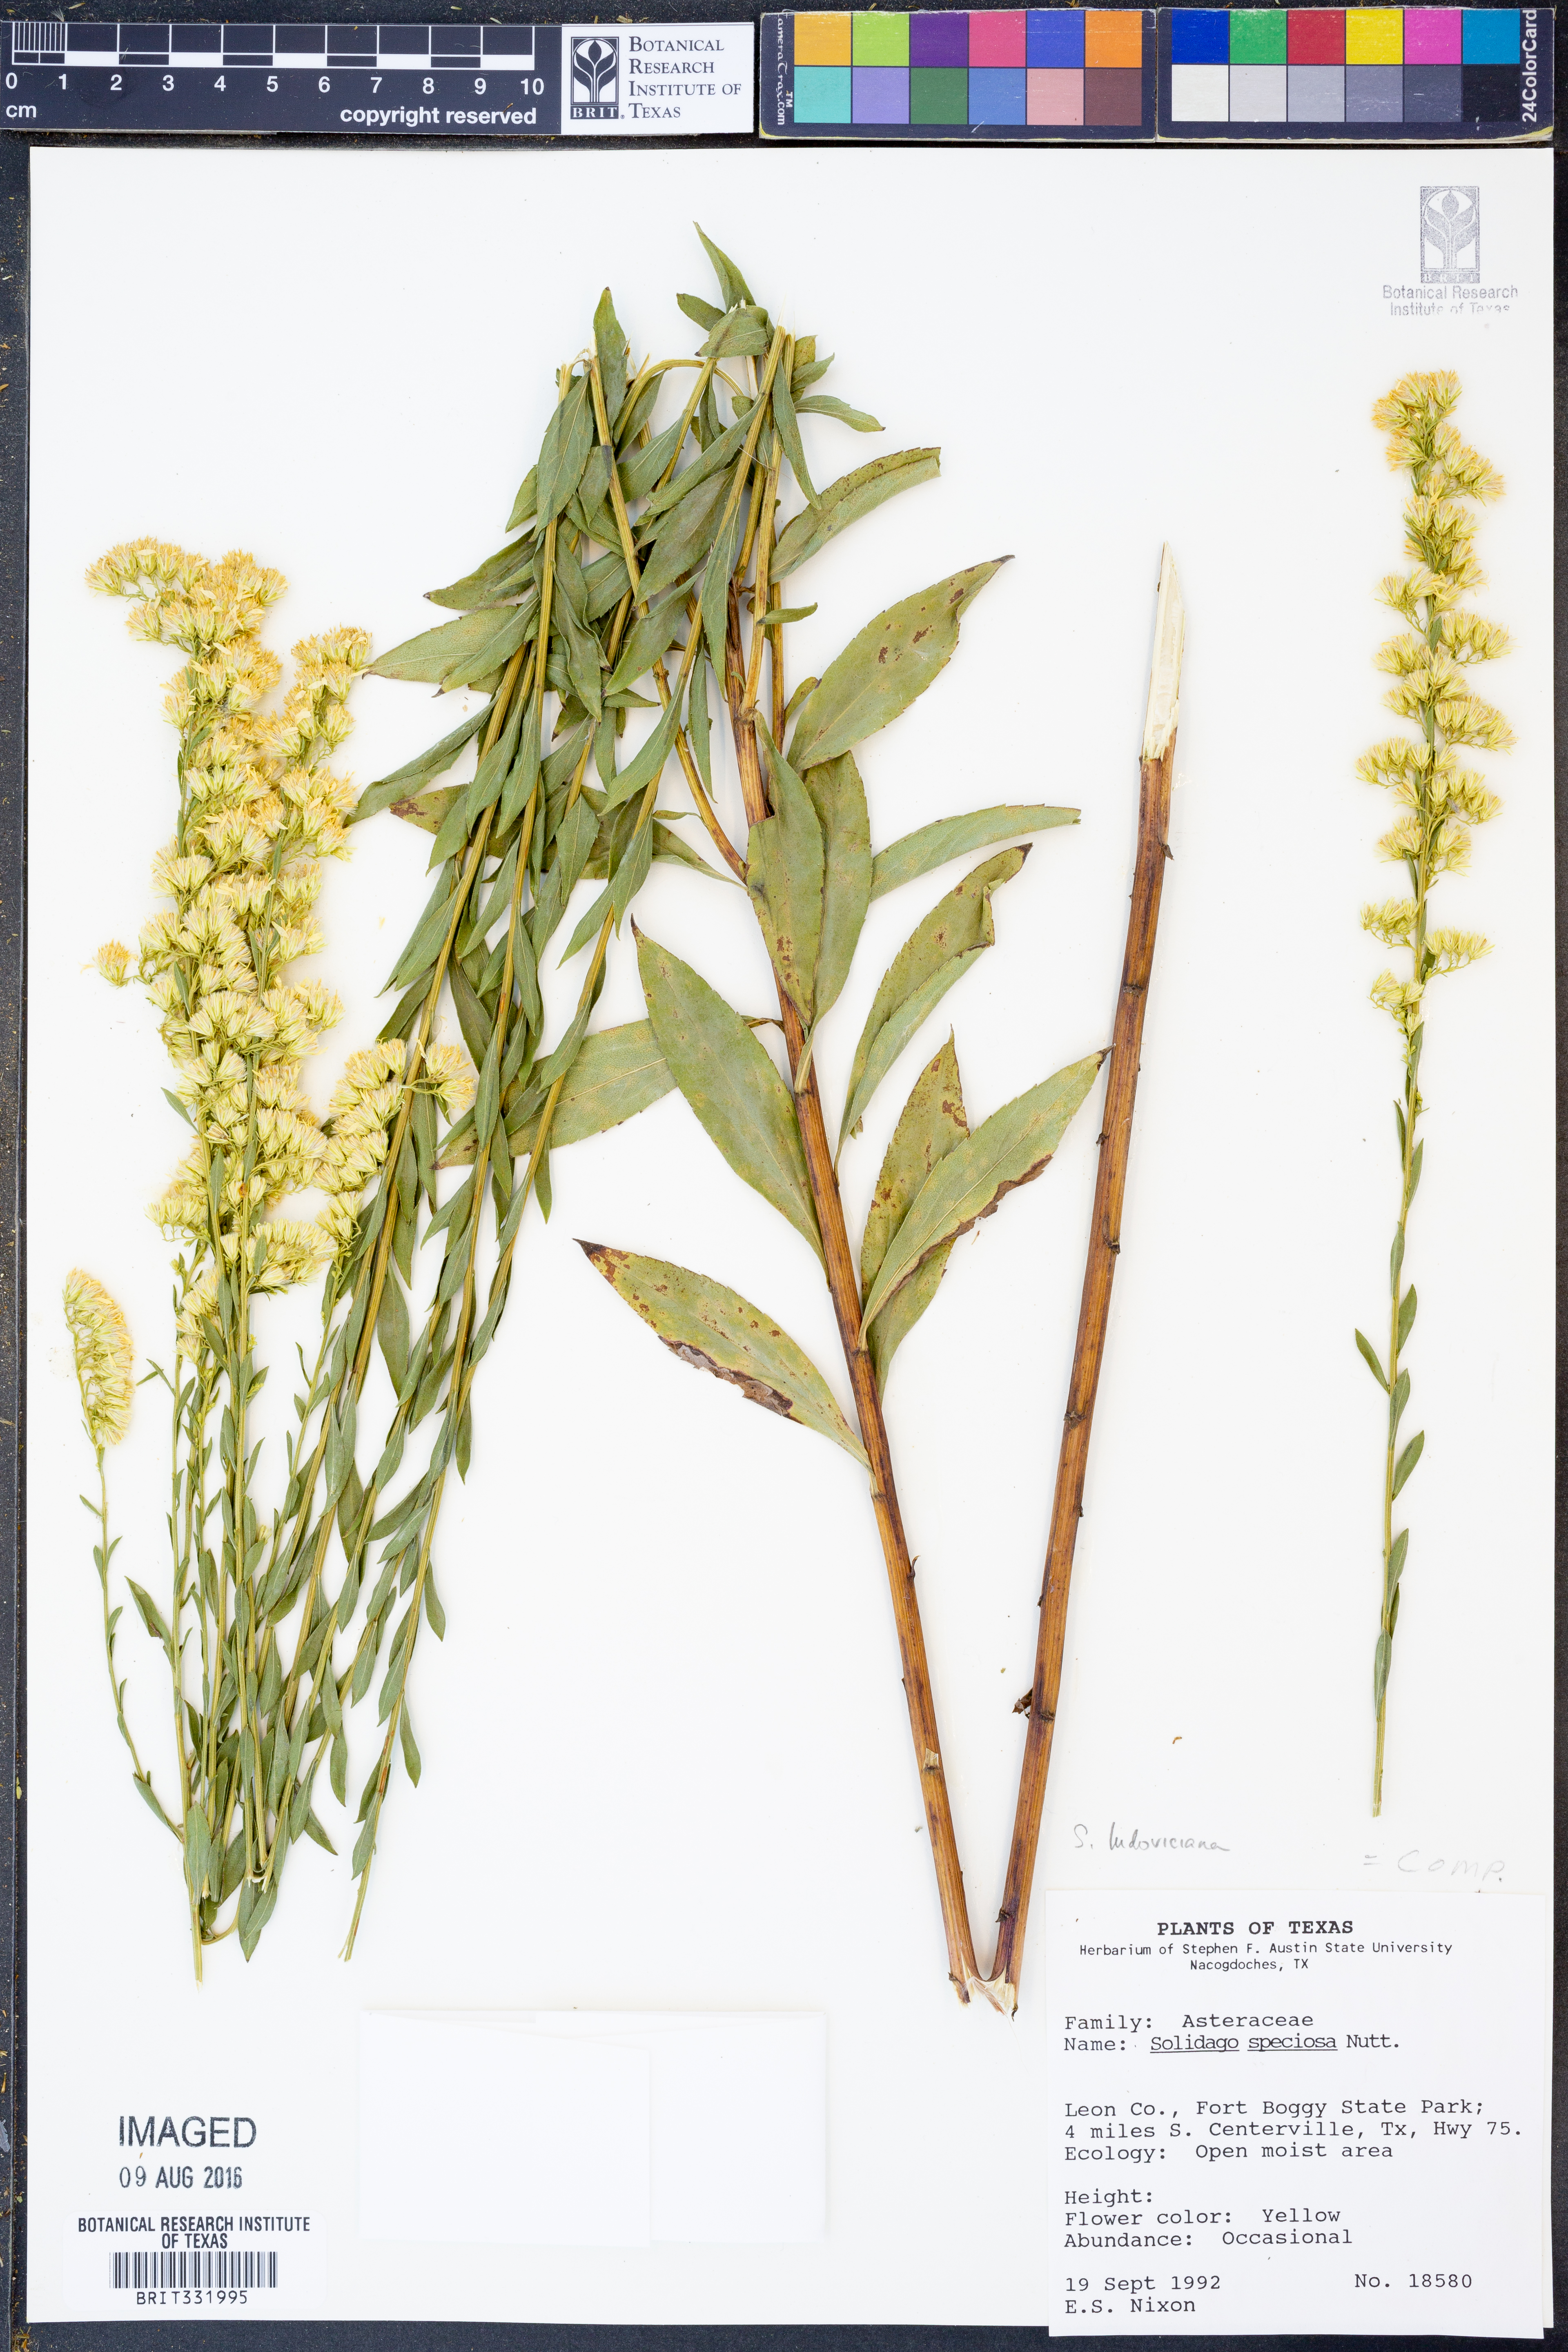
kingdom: Plantae
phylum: Tracheophyta
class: Magnoliopsida
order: Asterales
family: Asteraceae
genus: Solidago
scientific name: Solidago ludoviciana
